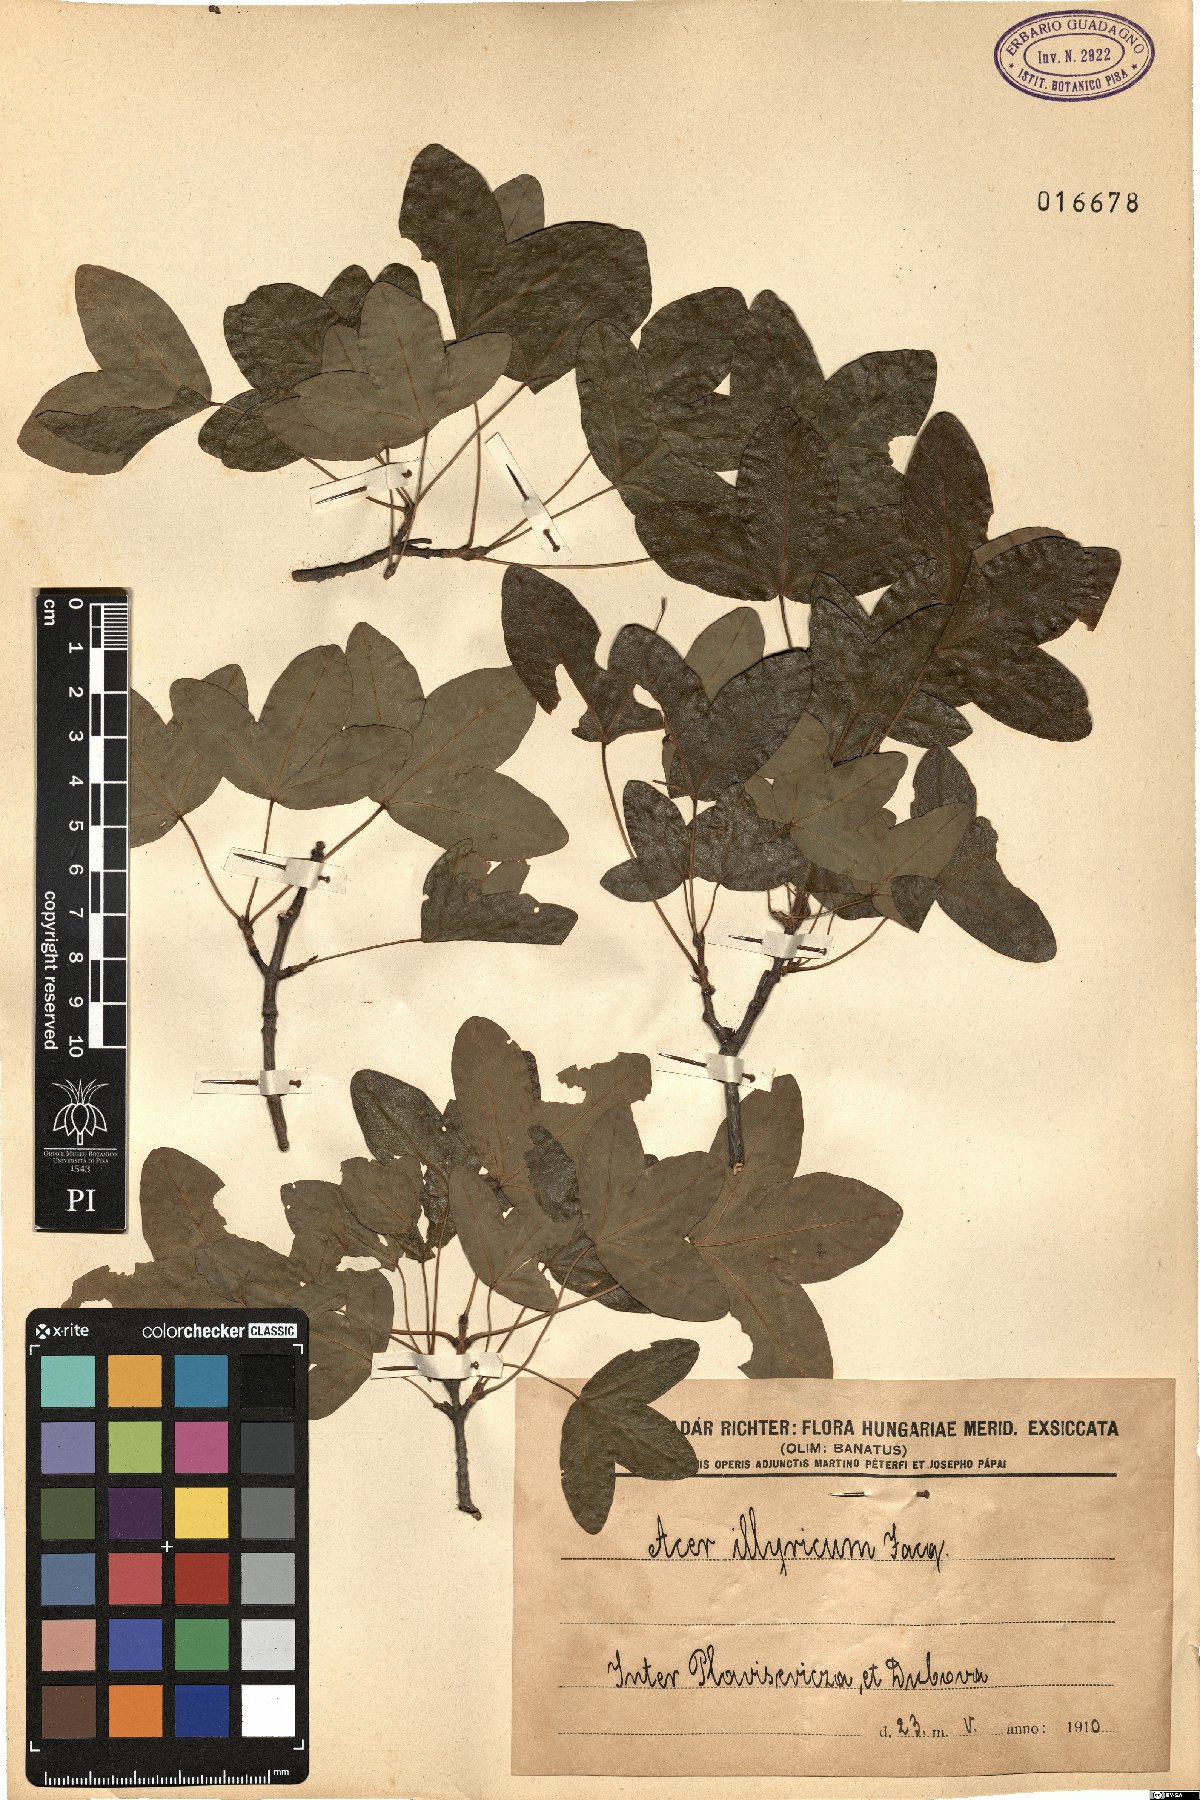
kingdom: Plantae
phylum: Tracheophyta
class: Magnoliopsida
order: Sapindales
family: Sapindaceae
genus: Acer
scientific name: Acer monspessulanum
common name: Montpellier maple
